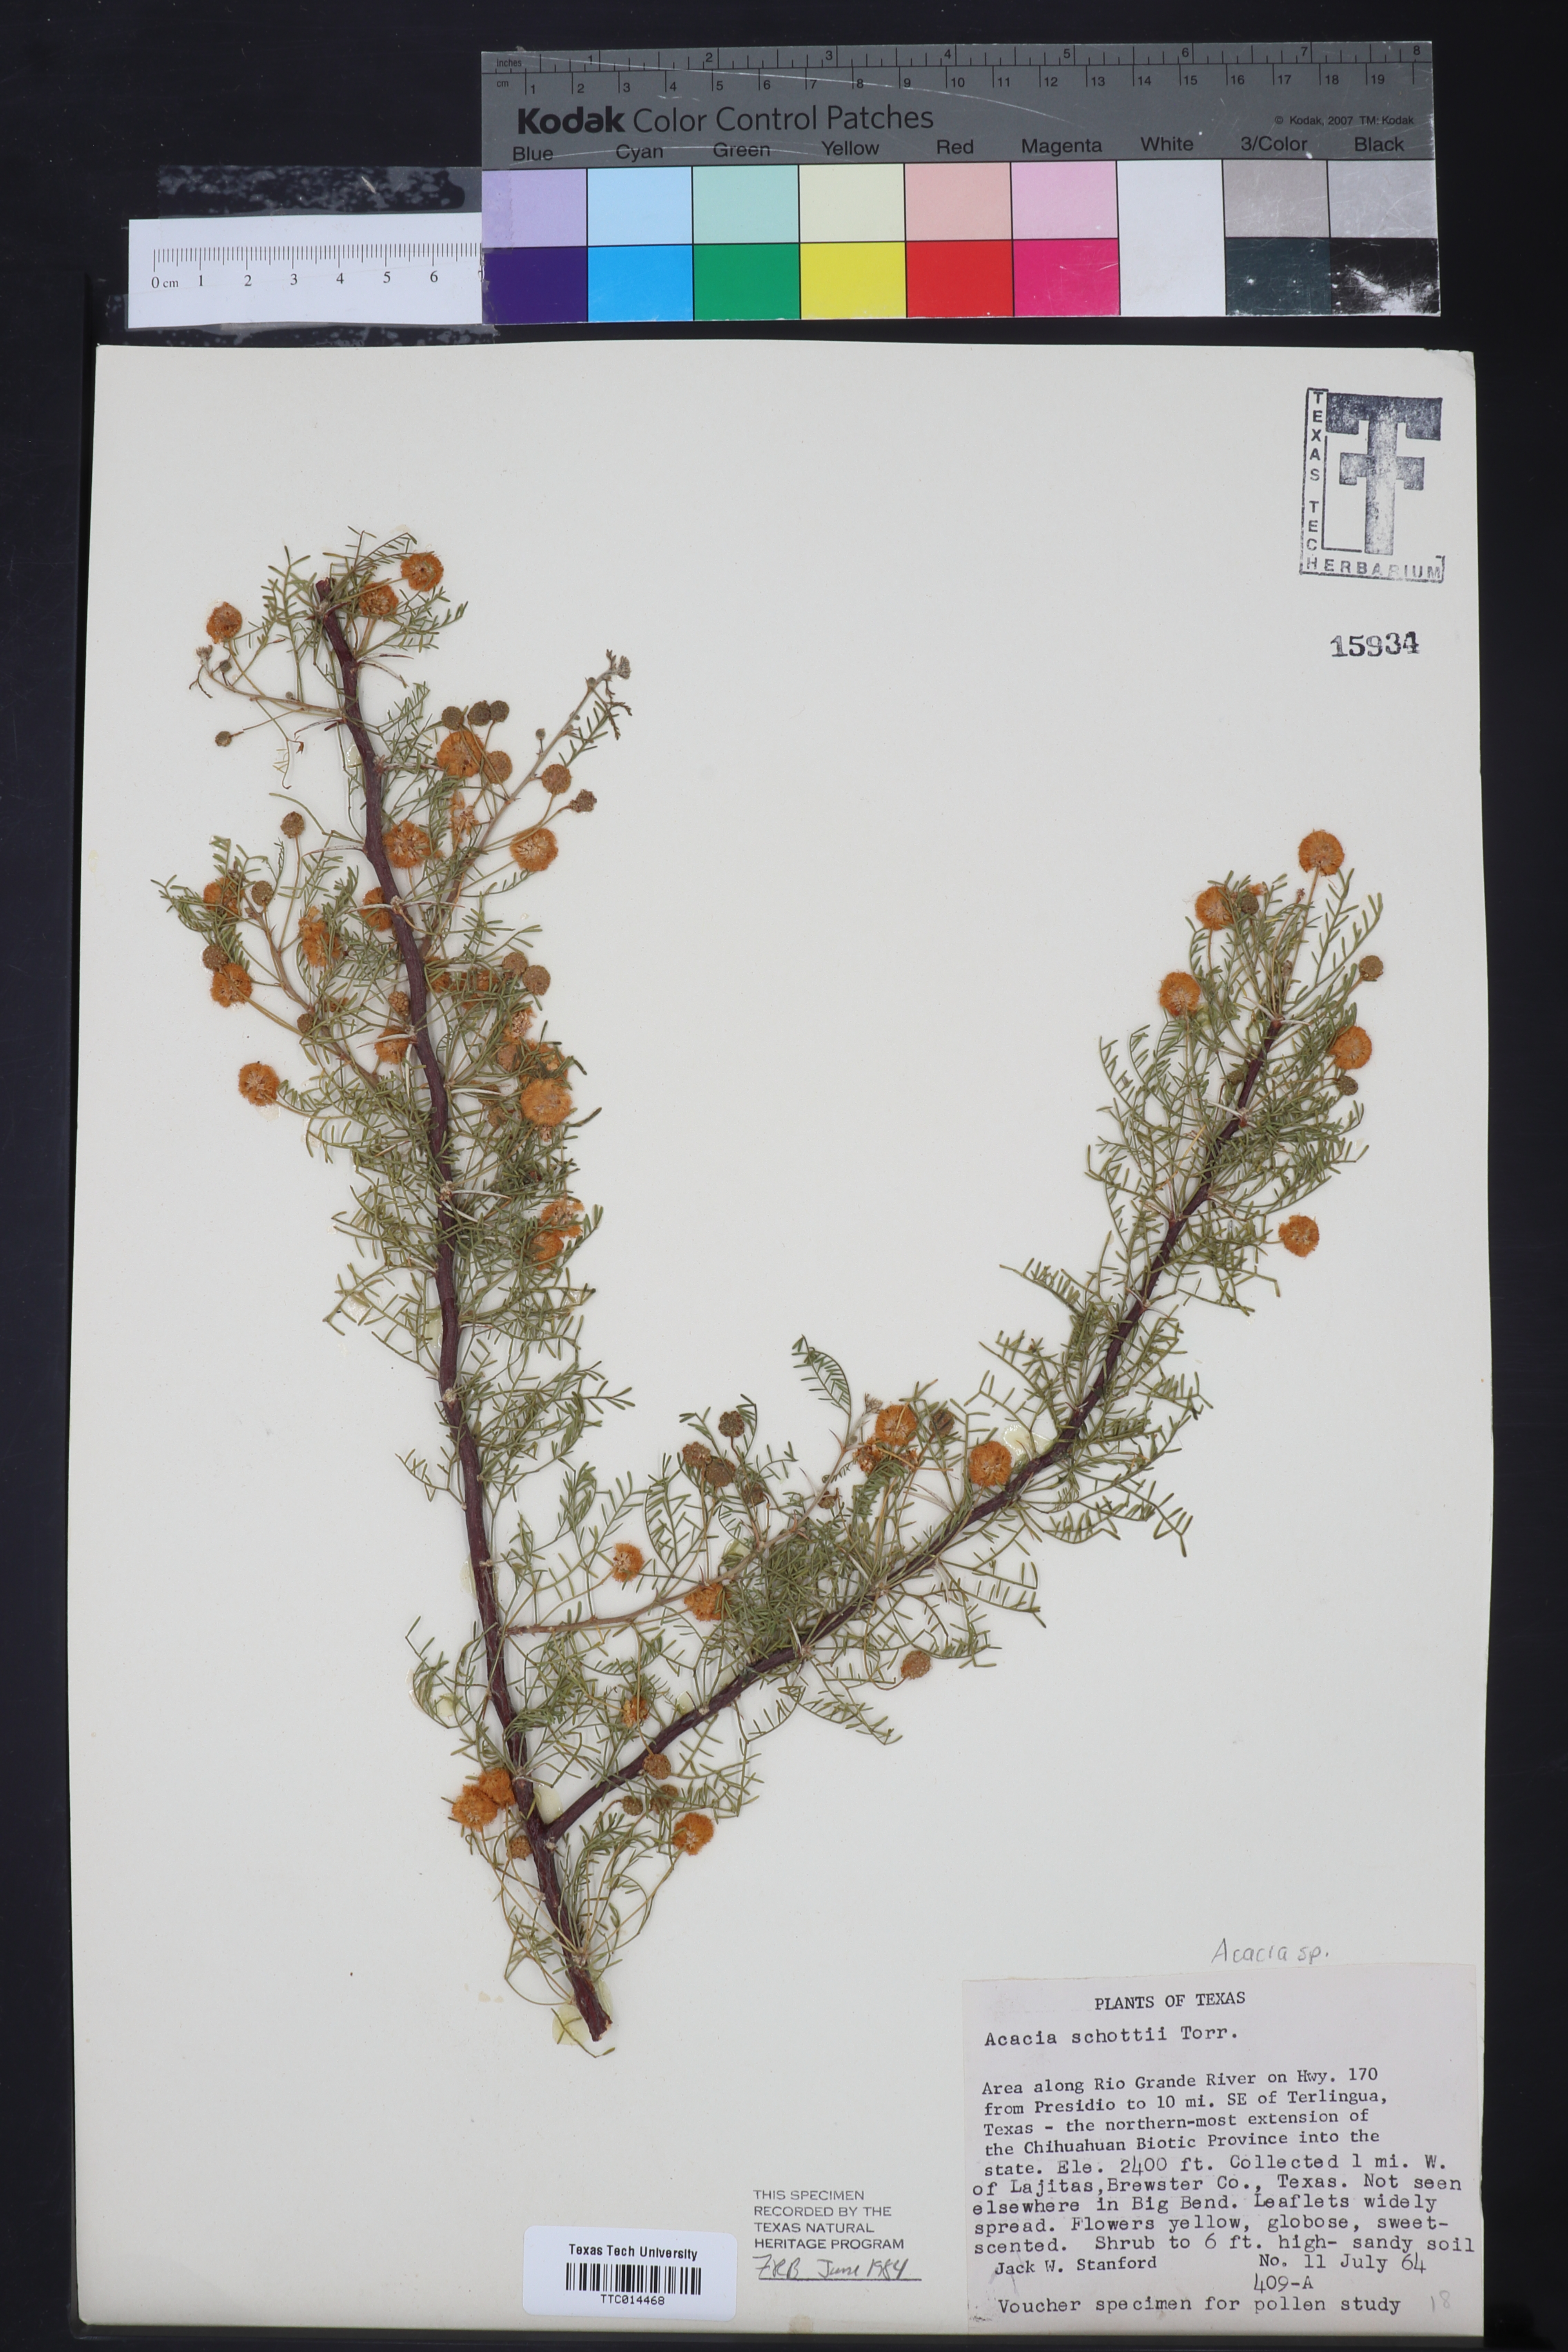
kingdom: Plantae
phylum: Tracheophyta
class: Magnoliopsida
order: Fabales
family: Fabaceae
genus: Vachellia
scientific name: Vachellia schottii
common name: Schott acacia
